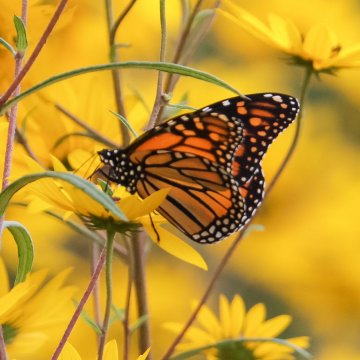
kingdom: Animalia
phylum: Arthropoda
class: Insecta
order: Lepidoptera
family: Nymphalidae
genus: Danaus
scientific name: Danaus plexippus
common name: Monarch
